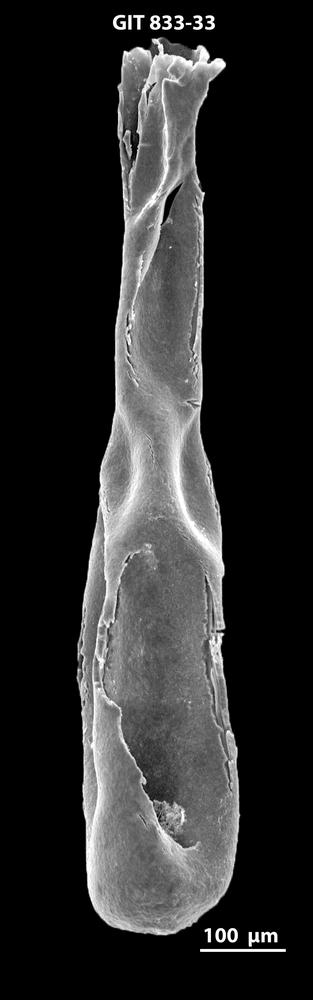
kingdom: Animalia
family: Lagenochitinidae
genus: Lagenochitina
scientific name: Lagenochitina megaesthonica
